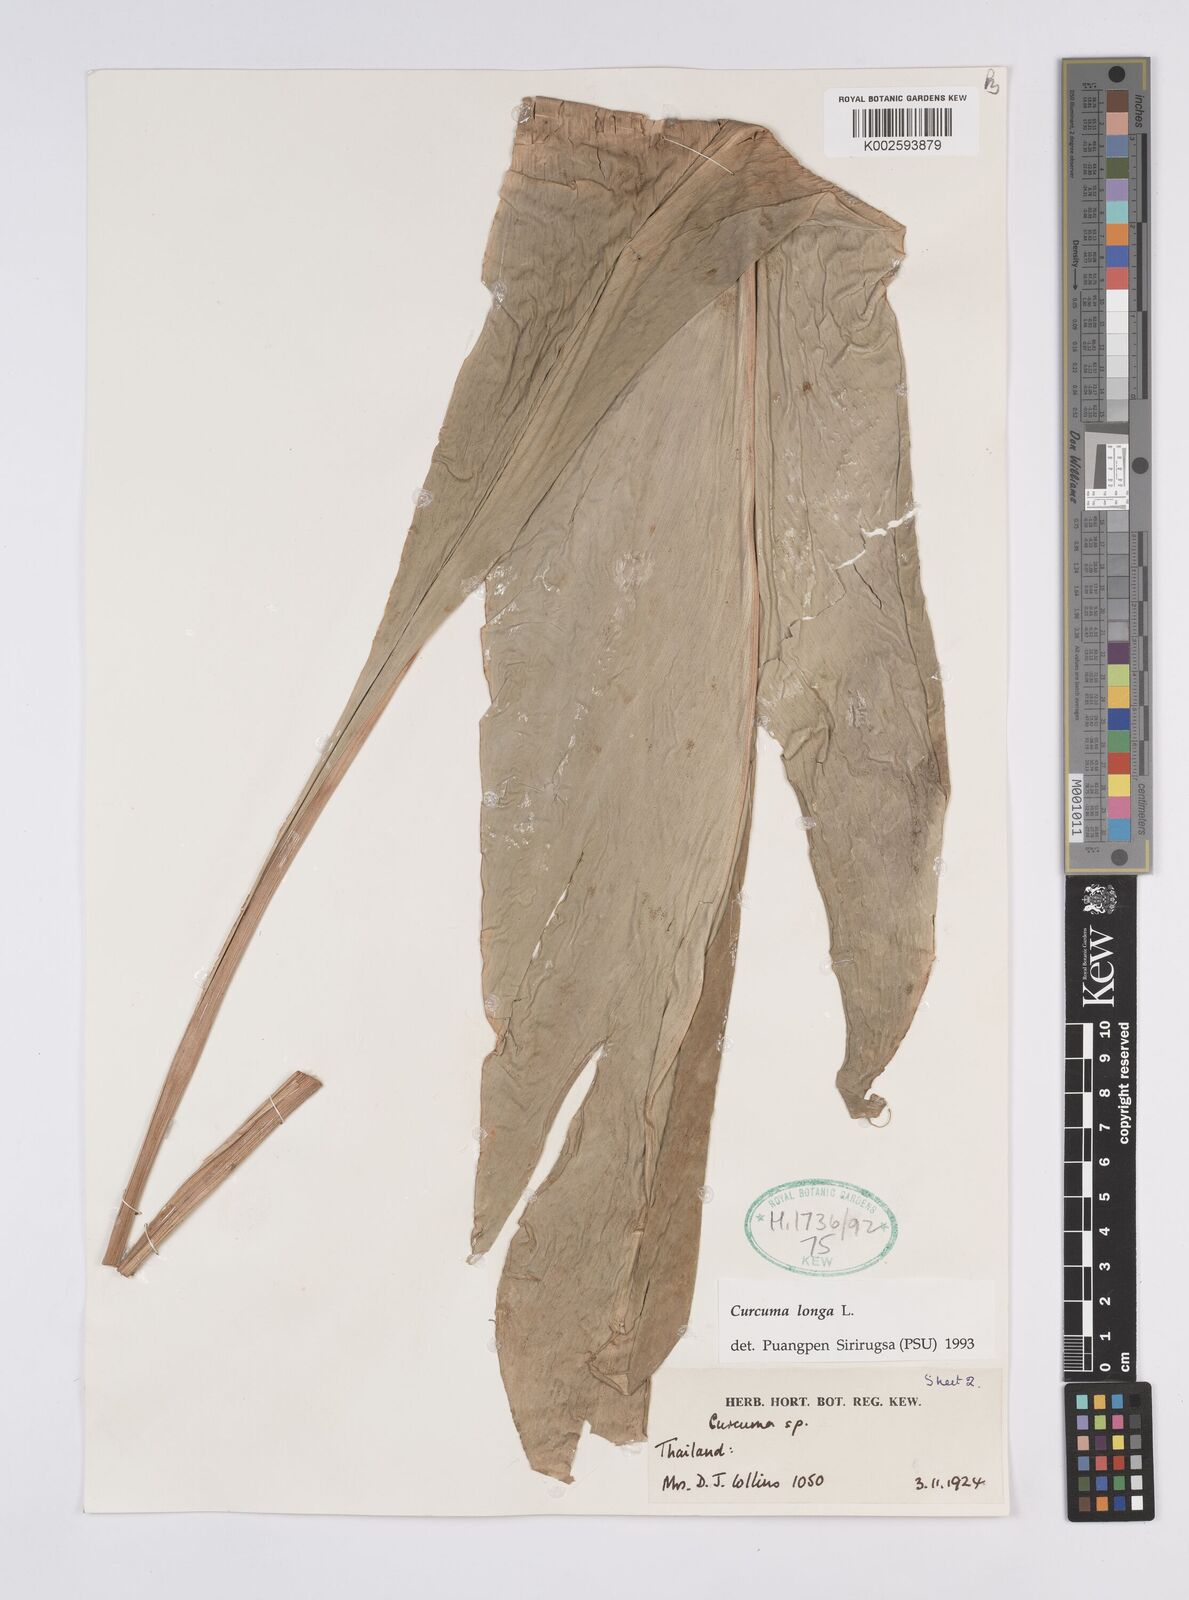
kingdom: Plantae
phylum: Tracheophyta
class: Liliopsida
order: Zingiberales
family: Zingiberaceae
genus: Curcuma
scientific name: Curcuma longa
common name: Turmeric
